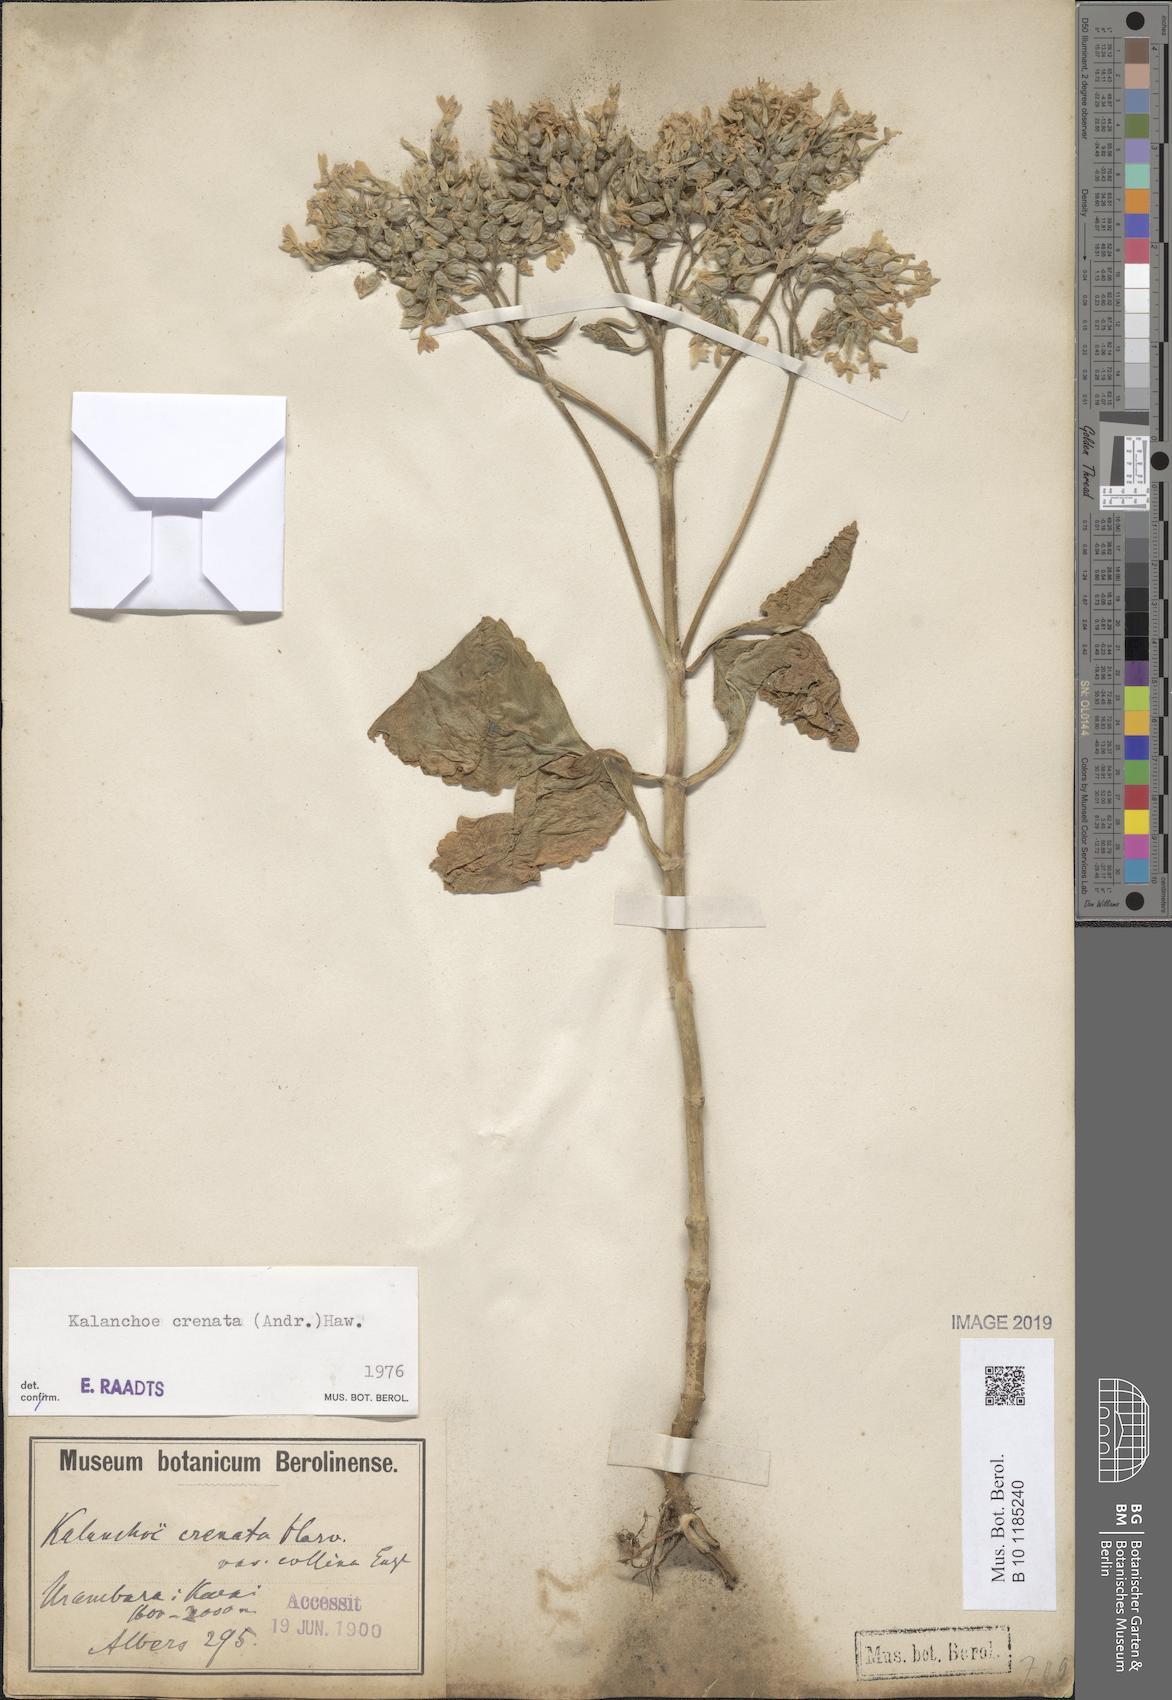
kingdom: Plantae
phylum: Tracheophyta
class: Magnoliopsida
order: Saxifragales
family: Crassulaceae
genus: Kalanchoe
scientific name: Kalanchoe crenata
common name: Neverdie
